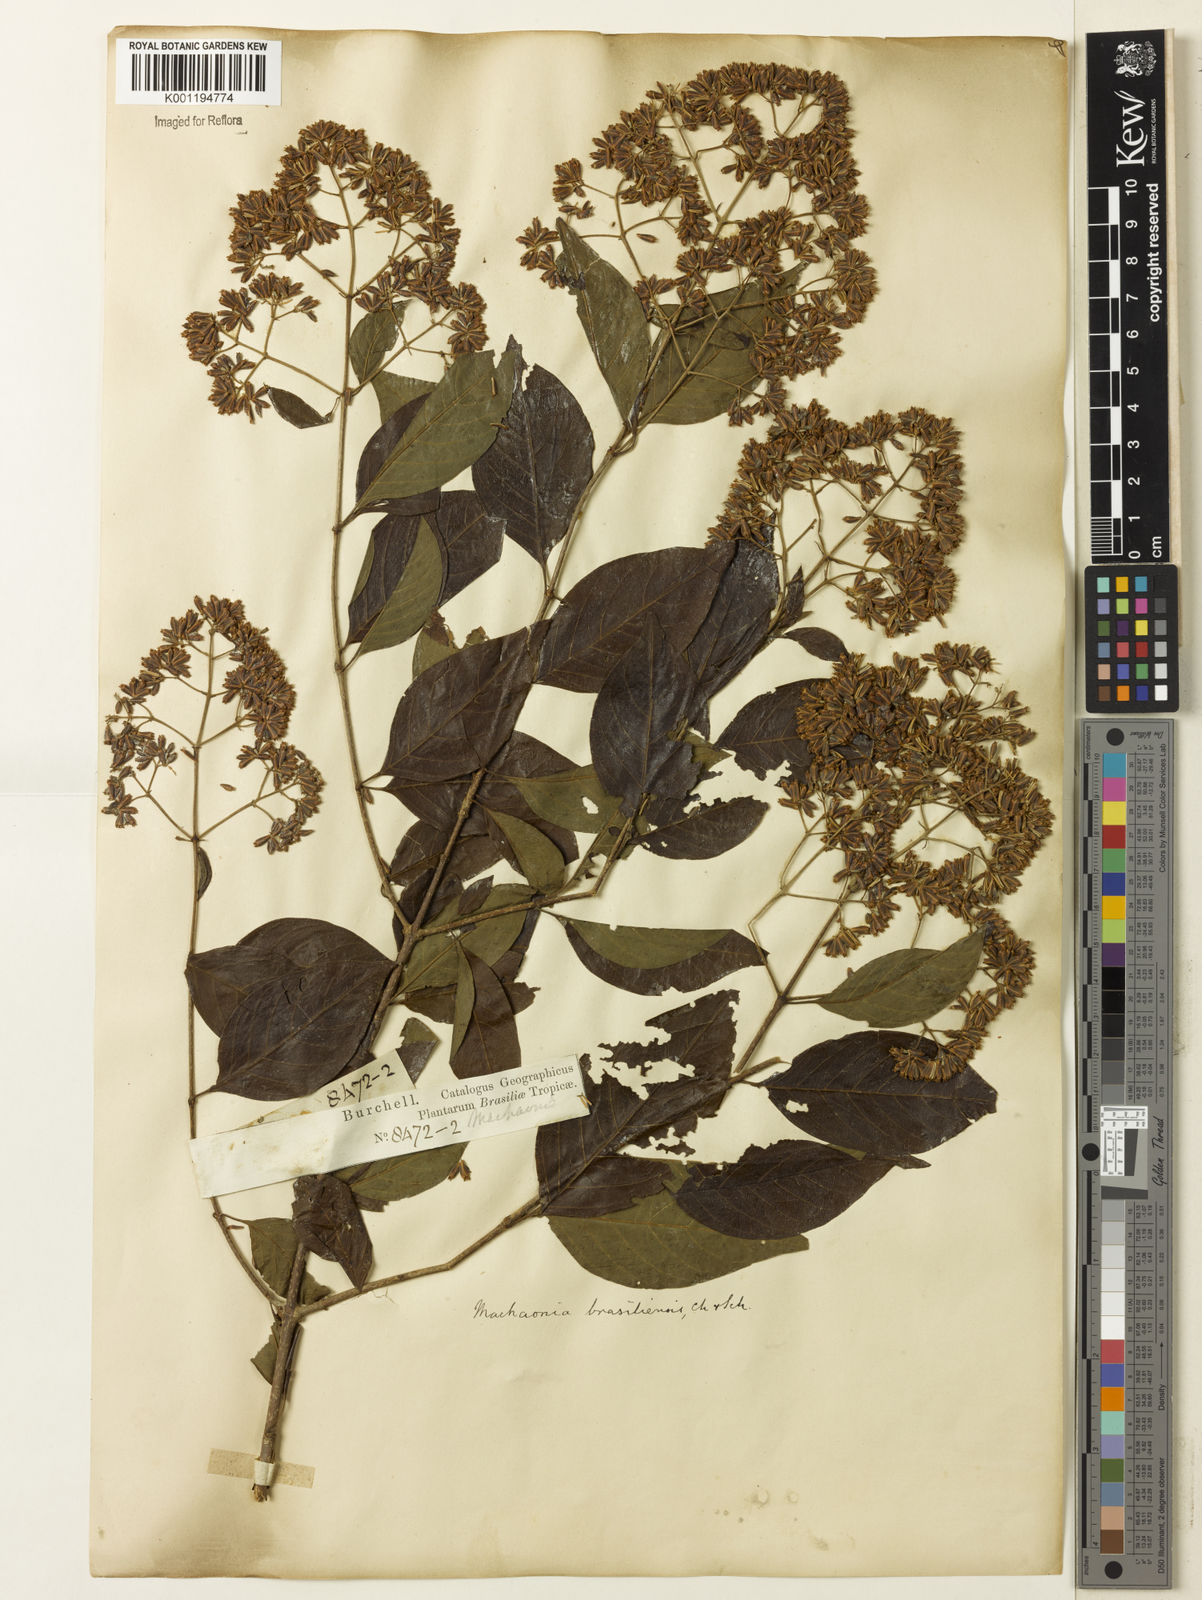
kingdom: Plantae
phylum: Tracheophyta
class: Magnoliopsida
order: Gentianales
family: Rubiaceae
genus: Machaonia
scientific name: Machaonia brasiliensis
